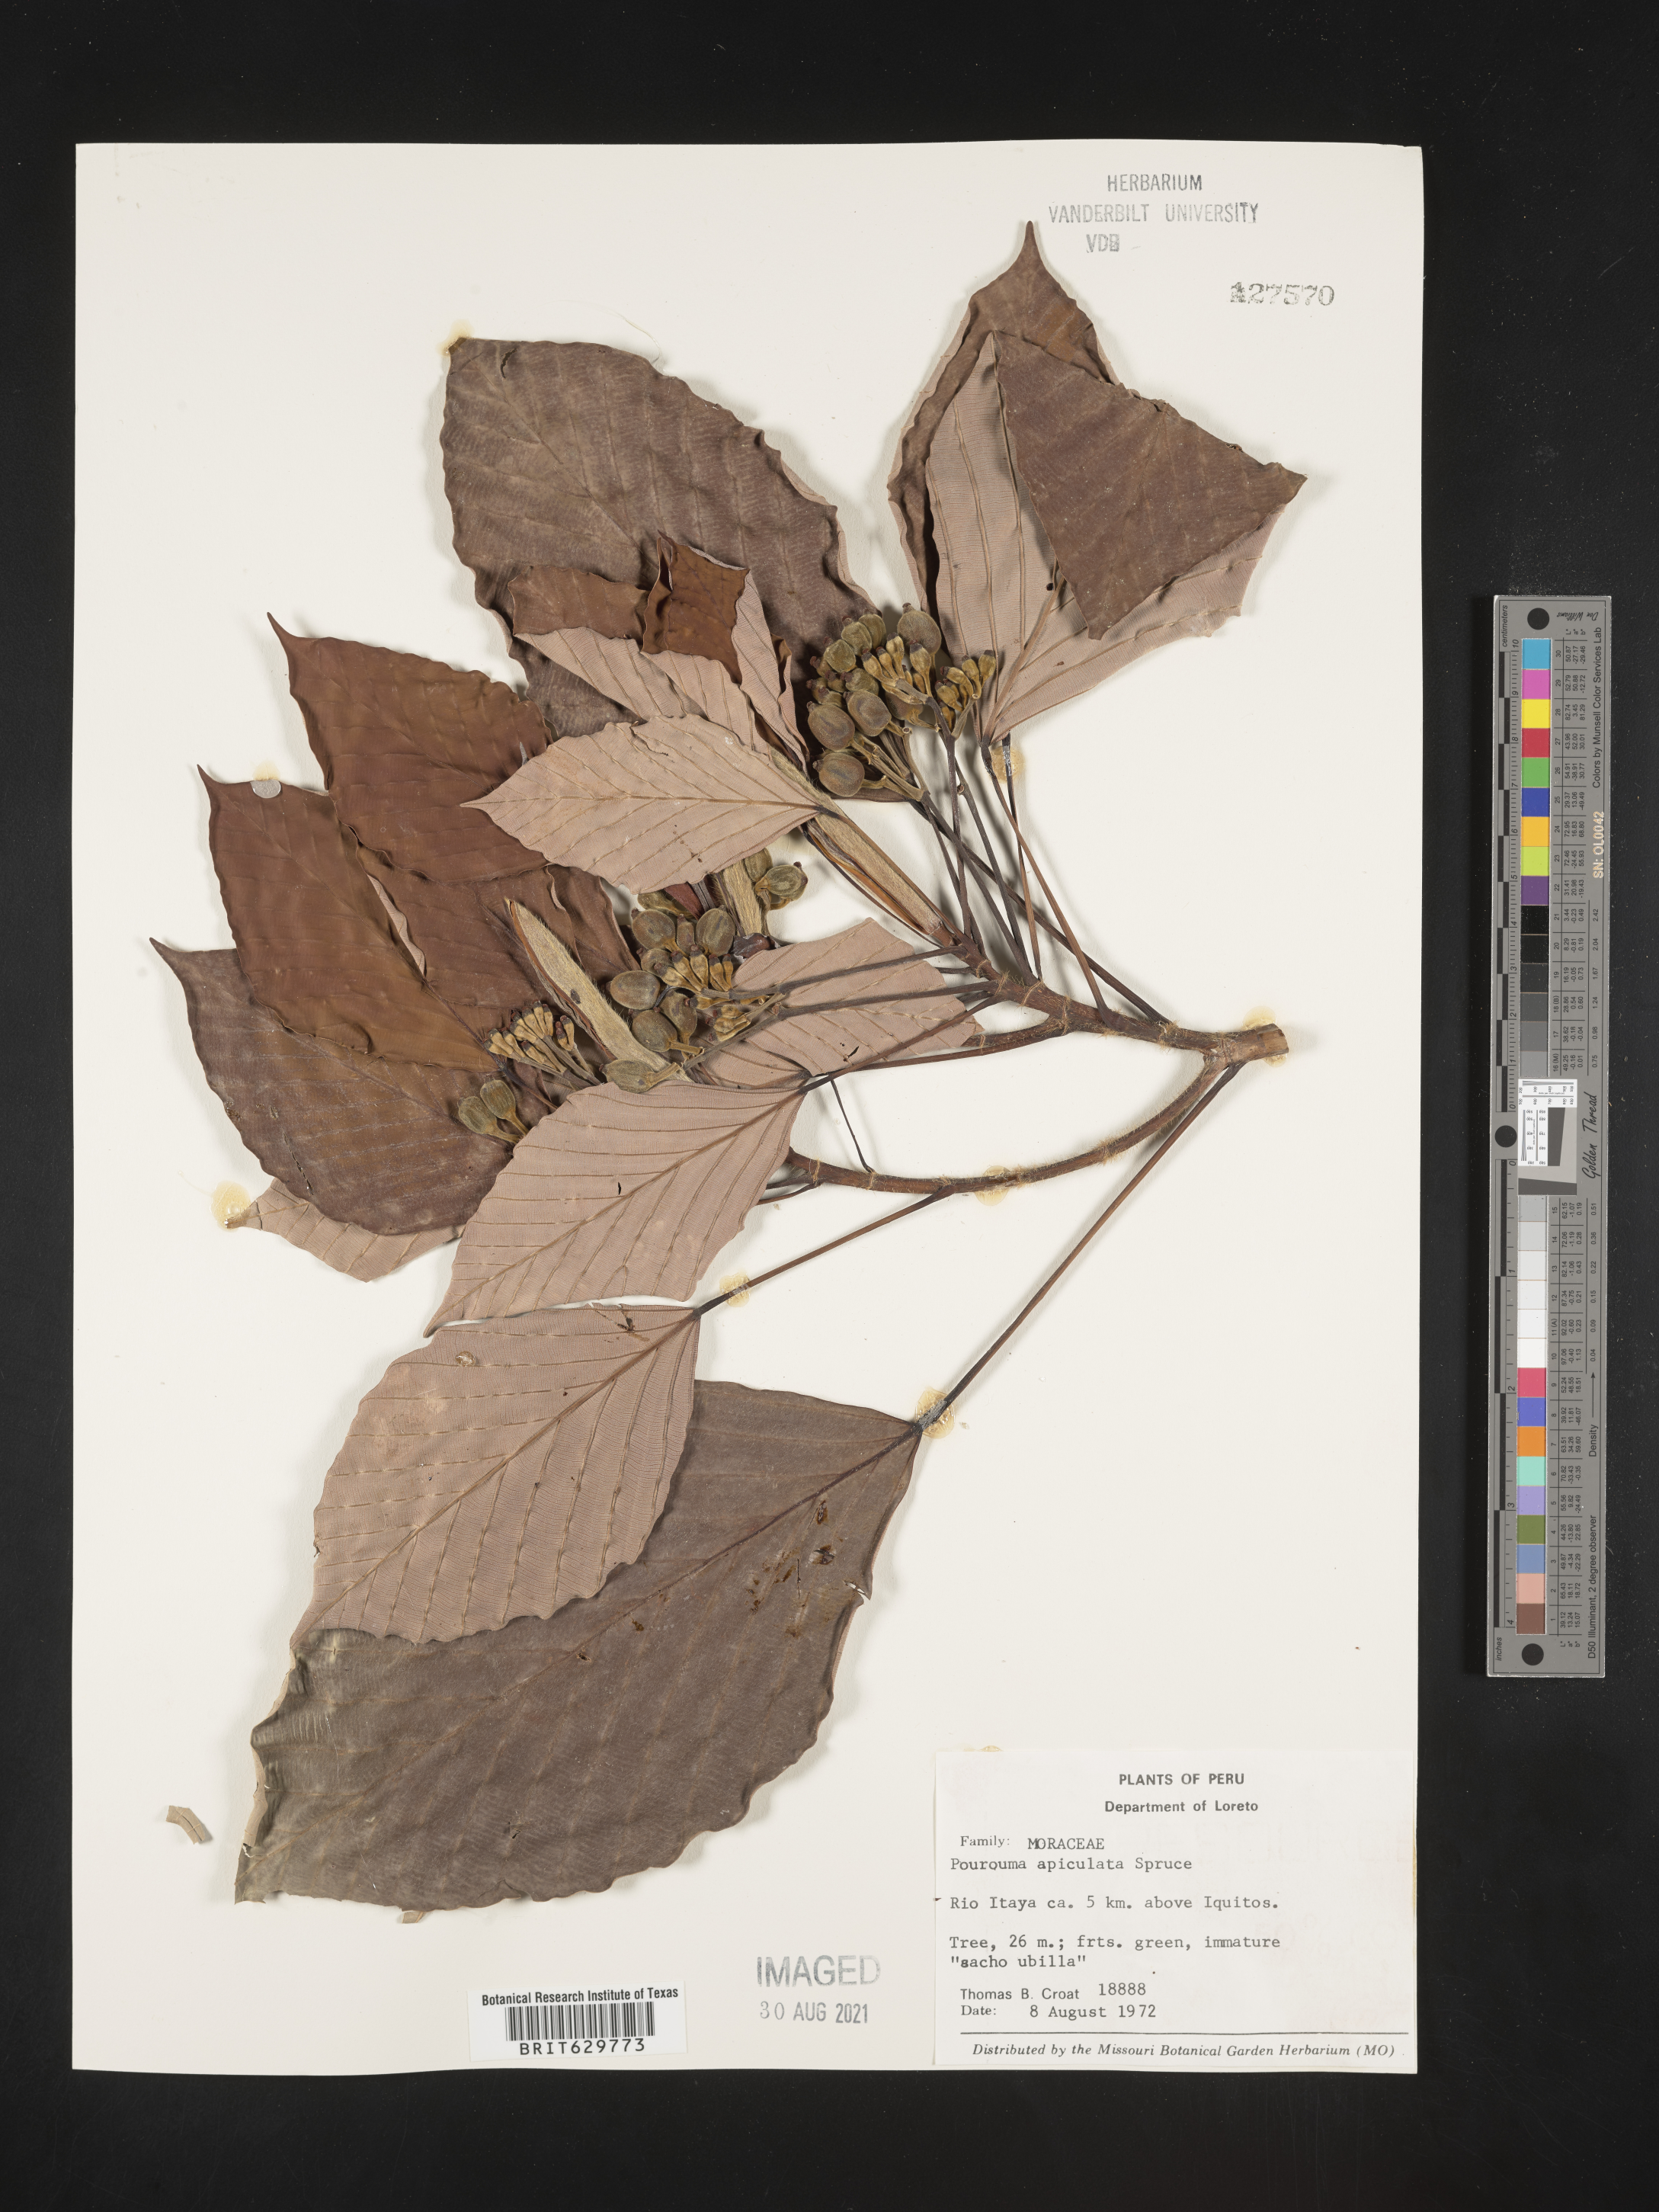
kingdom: Plantae
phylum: Tracheophyta
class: Magnoliopsida
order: Rosales
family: Urticaceae
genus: Pourouma
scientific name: Pourouma
